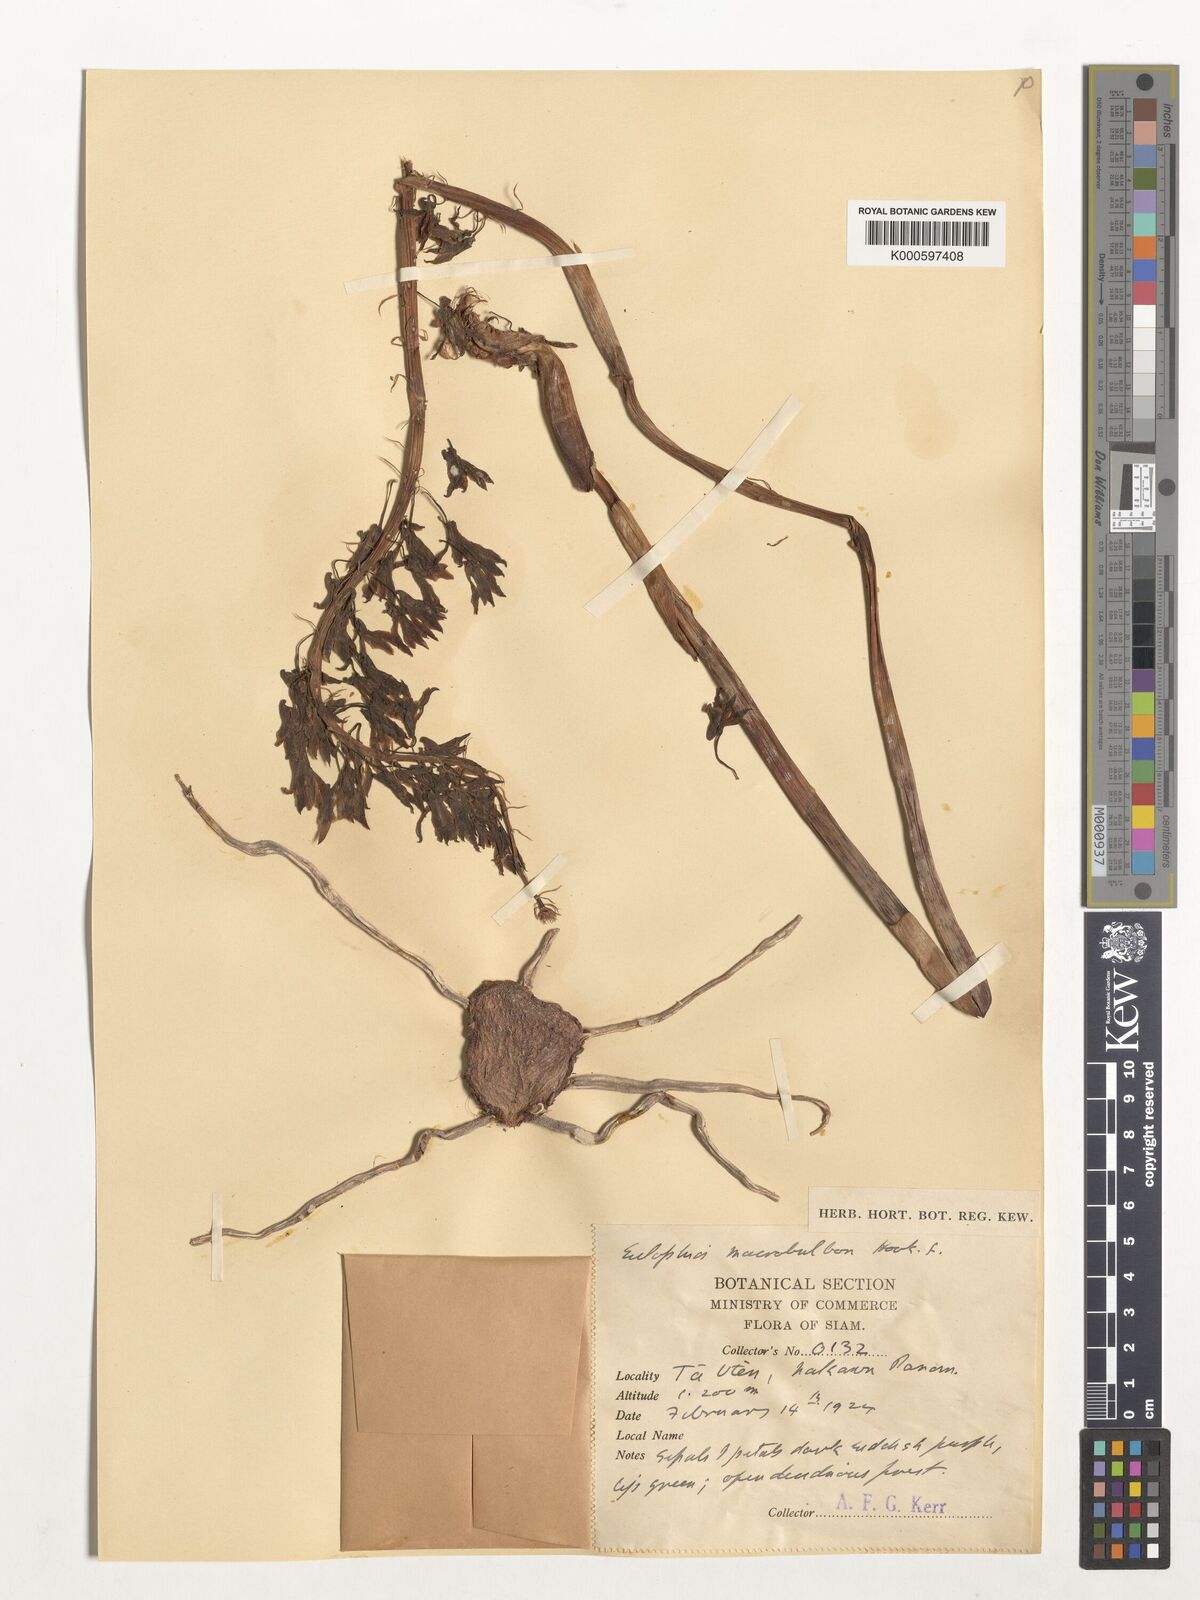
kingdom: Plantae
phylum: Tracheophyta
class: Liliopsida
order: Asparagales
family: Orchidaceae
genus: Eulophia
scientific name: Eulophia macrobulbon
